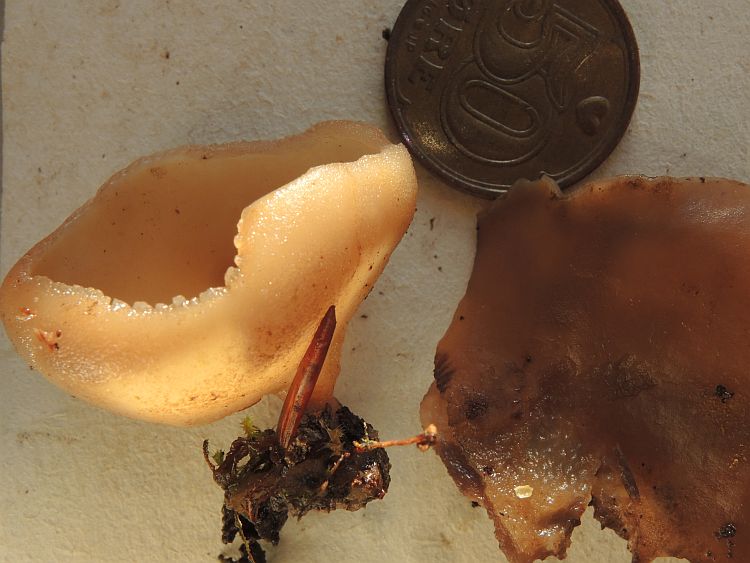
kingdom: Fungi
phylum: Ascomycota
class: Pezizomycetes
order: Pezizales
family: Pezizaceae
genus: Peziza
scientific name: Peziza varia
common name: Ved-bægersvamp
